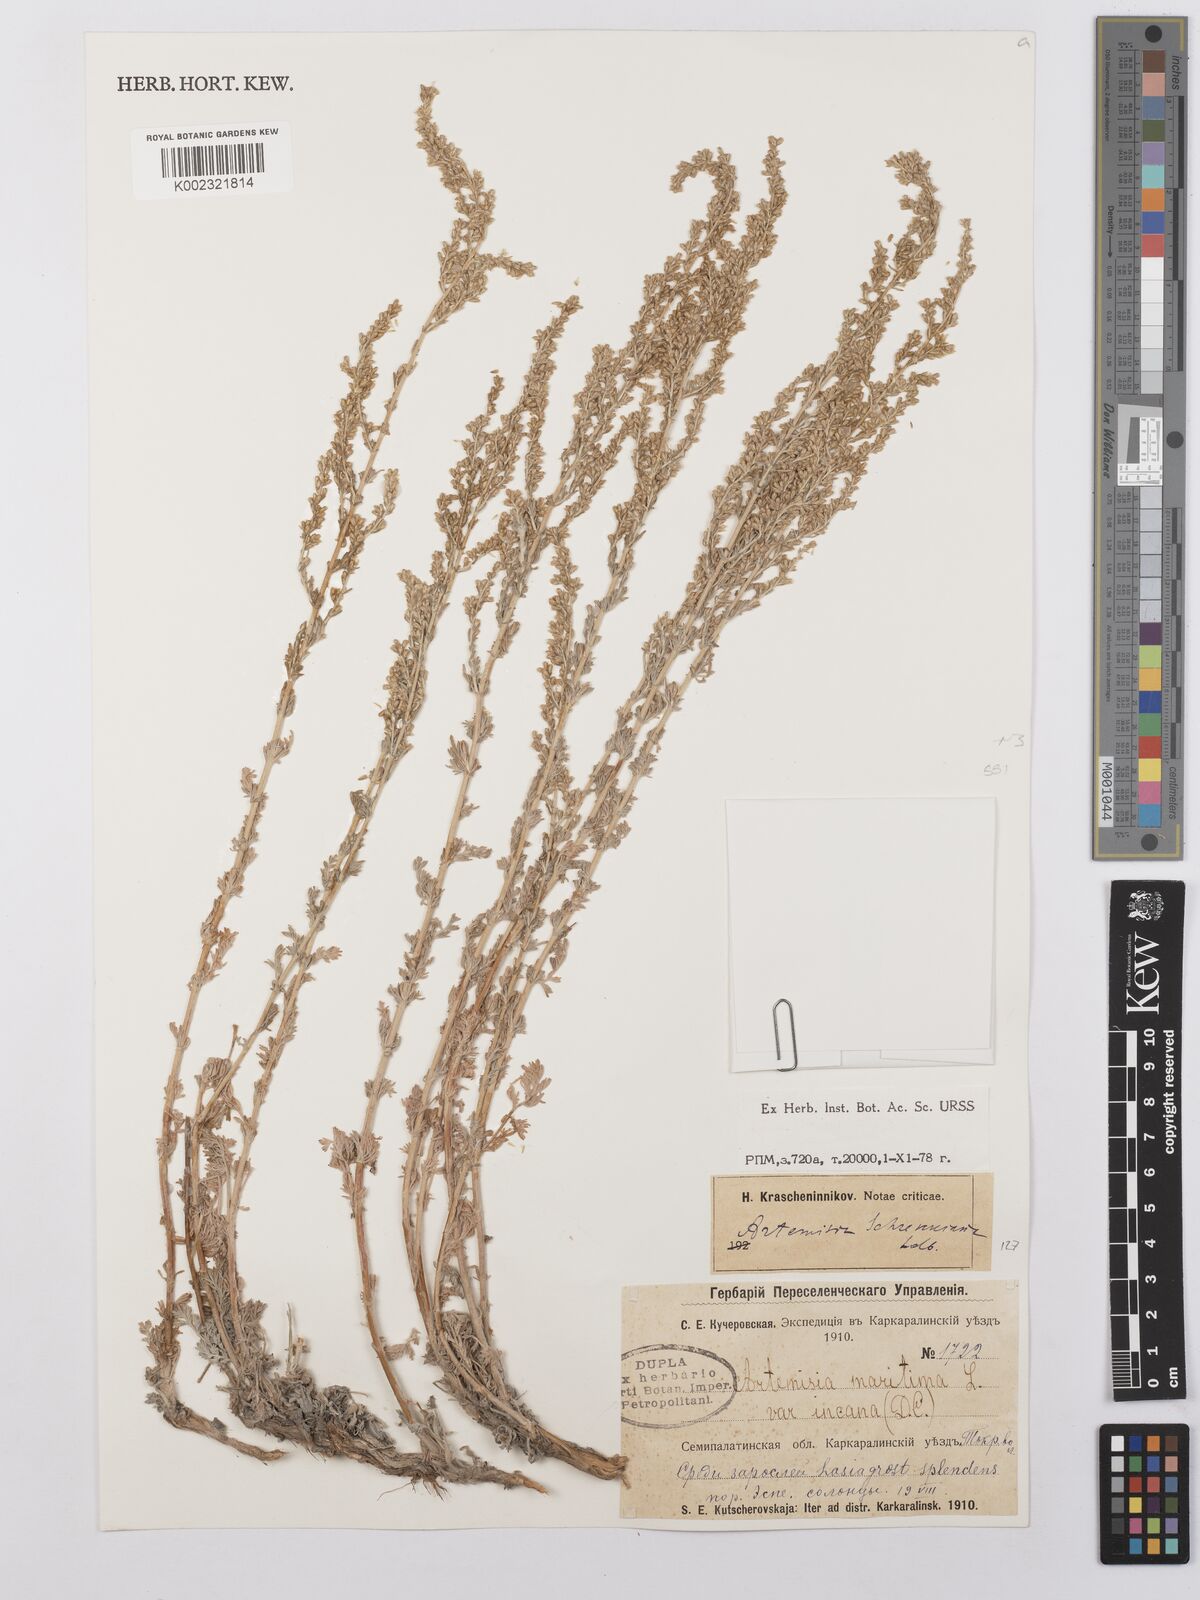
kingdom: Plantae
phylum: Tracheophyta
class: Magnoliopsida
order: Asterales
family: Asteraceae
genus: Artemisia
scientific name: Artemisia lercheana
